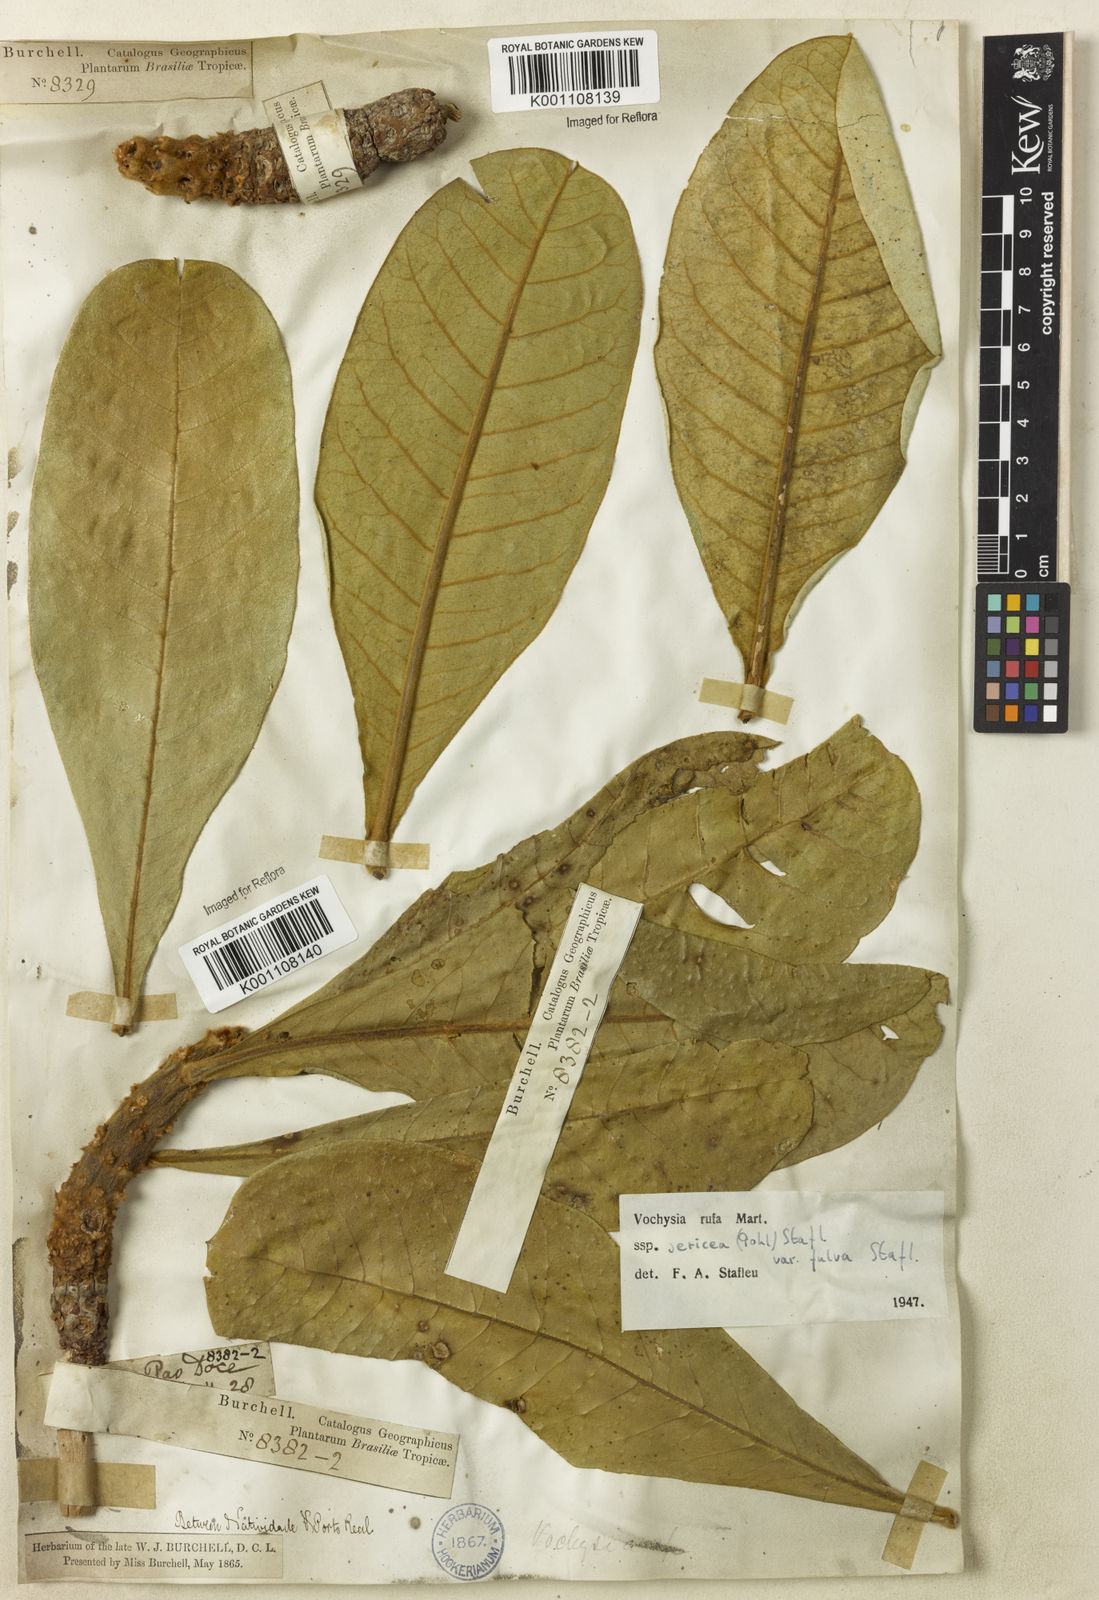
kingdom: Plantae
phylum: Tracheophyta
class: Magnoliopsida
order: Myrtales
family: Vochysiaceae
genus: Vochysia
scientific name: Vochysia rufa
